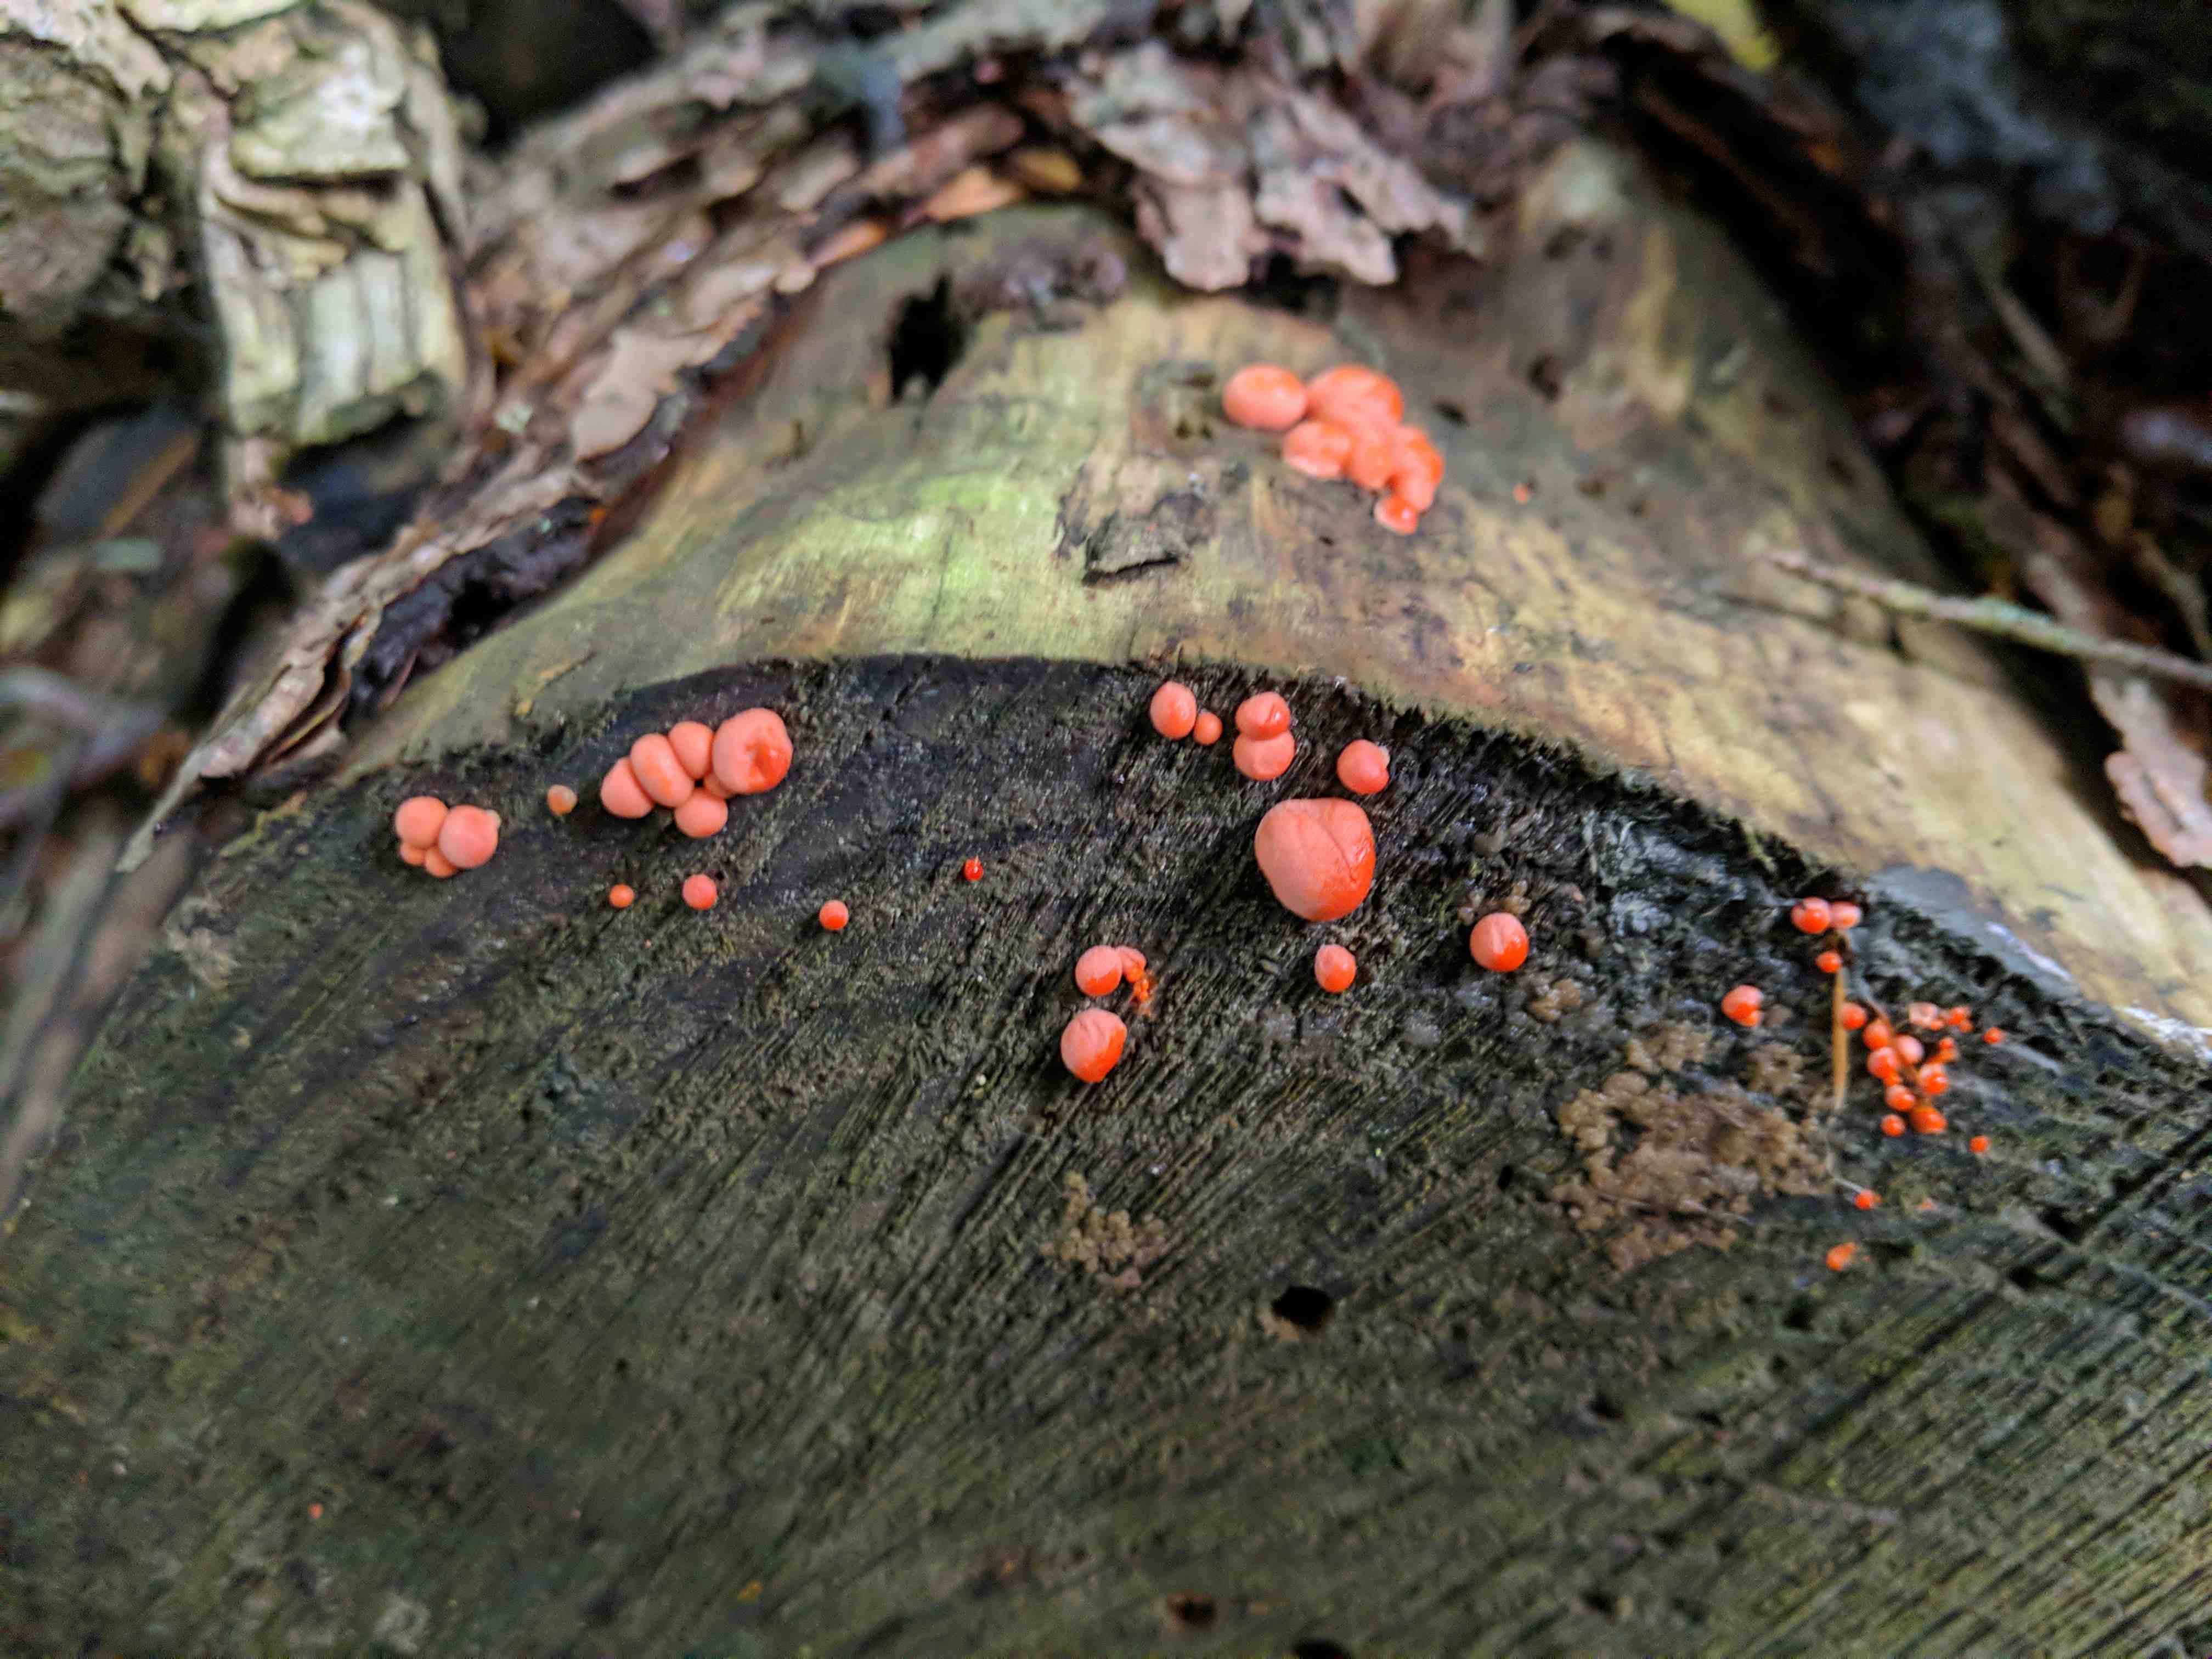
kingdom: Protozoa
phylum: Mycetozoa
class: Myxomycetes
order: Cribrariales
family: Tubiferaceae
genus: Lycogala
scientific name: Lycogala epidendrum
